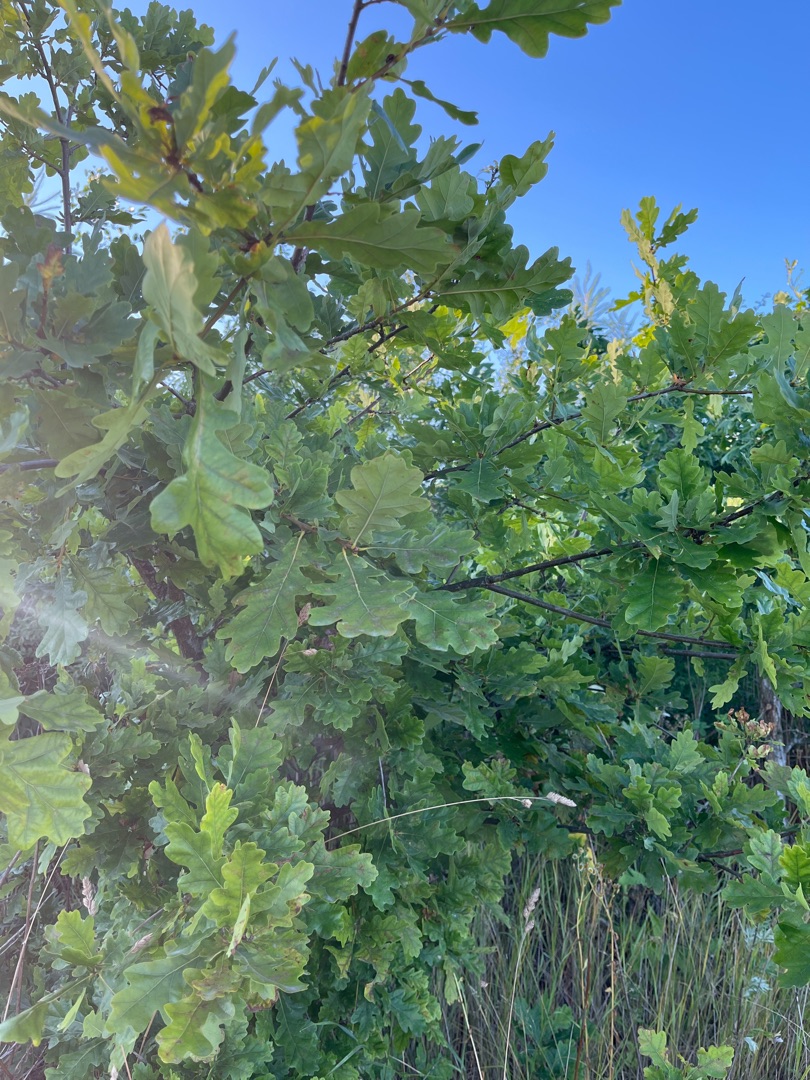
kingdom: Plantae
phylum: Tracheophyta
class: Magnoliopsida
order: Fagales
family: Fagaceae
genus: Quercus
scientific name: Quercus robur
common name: Stilk-eg/almindelig eg
